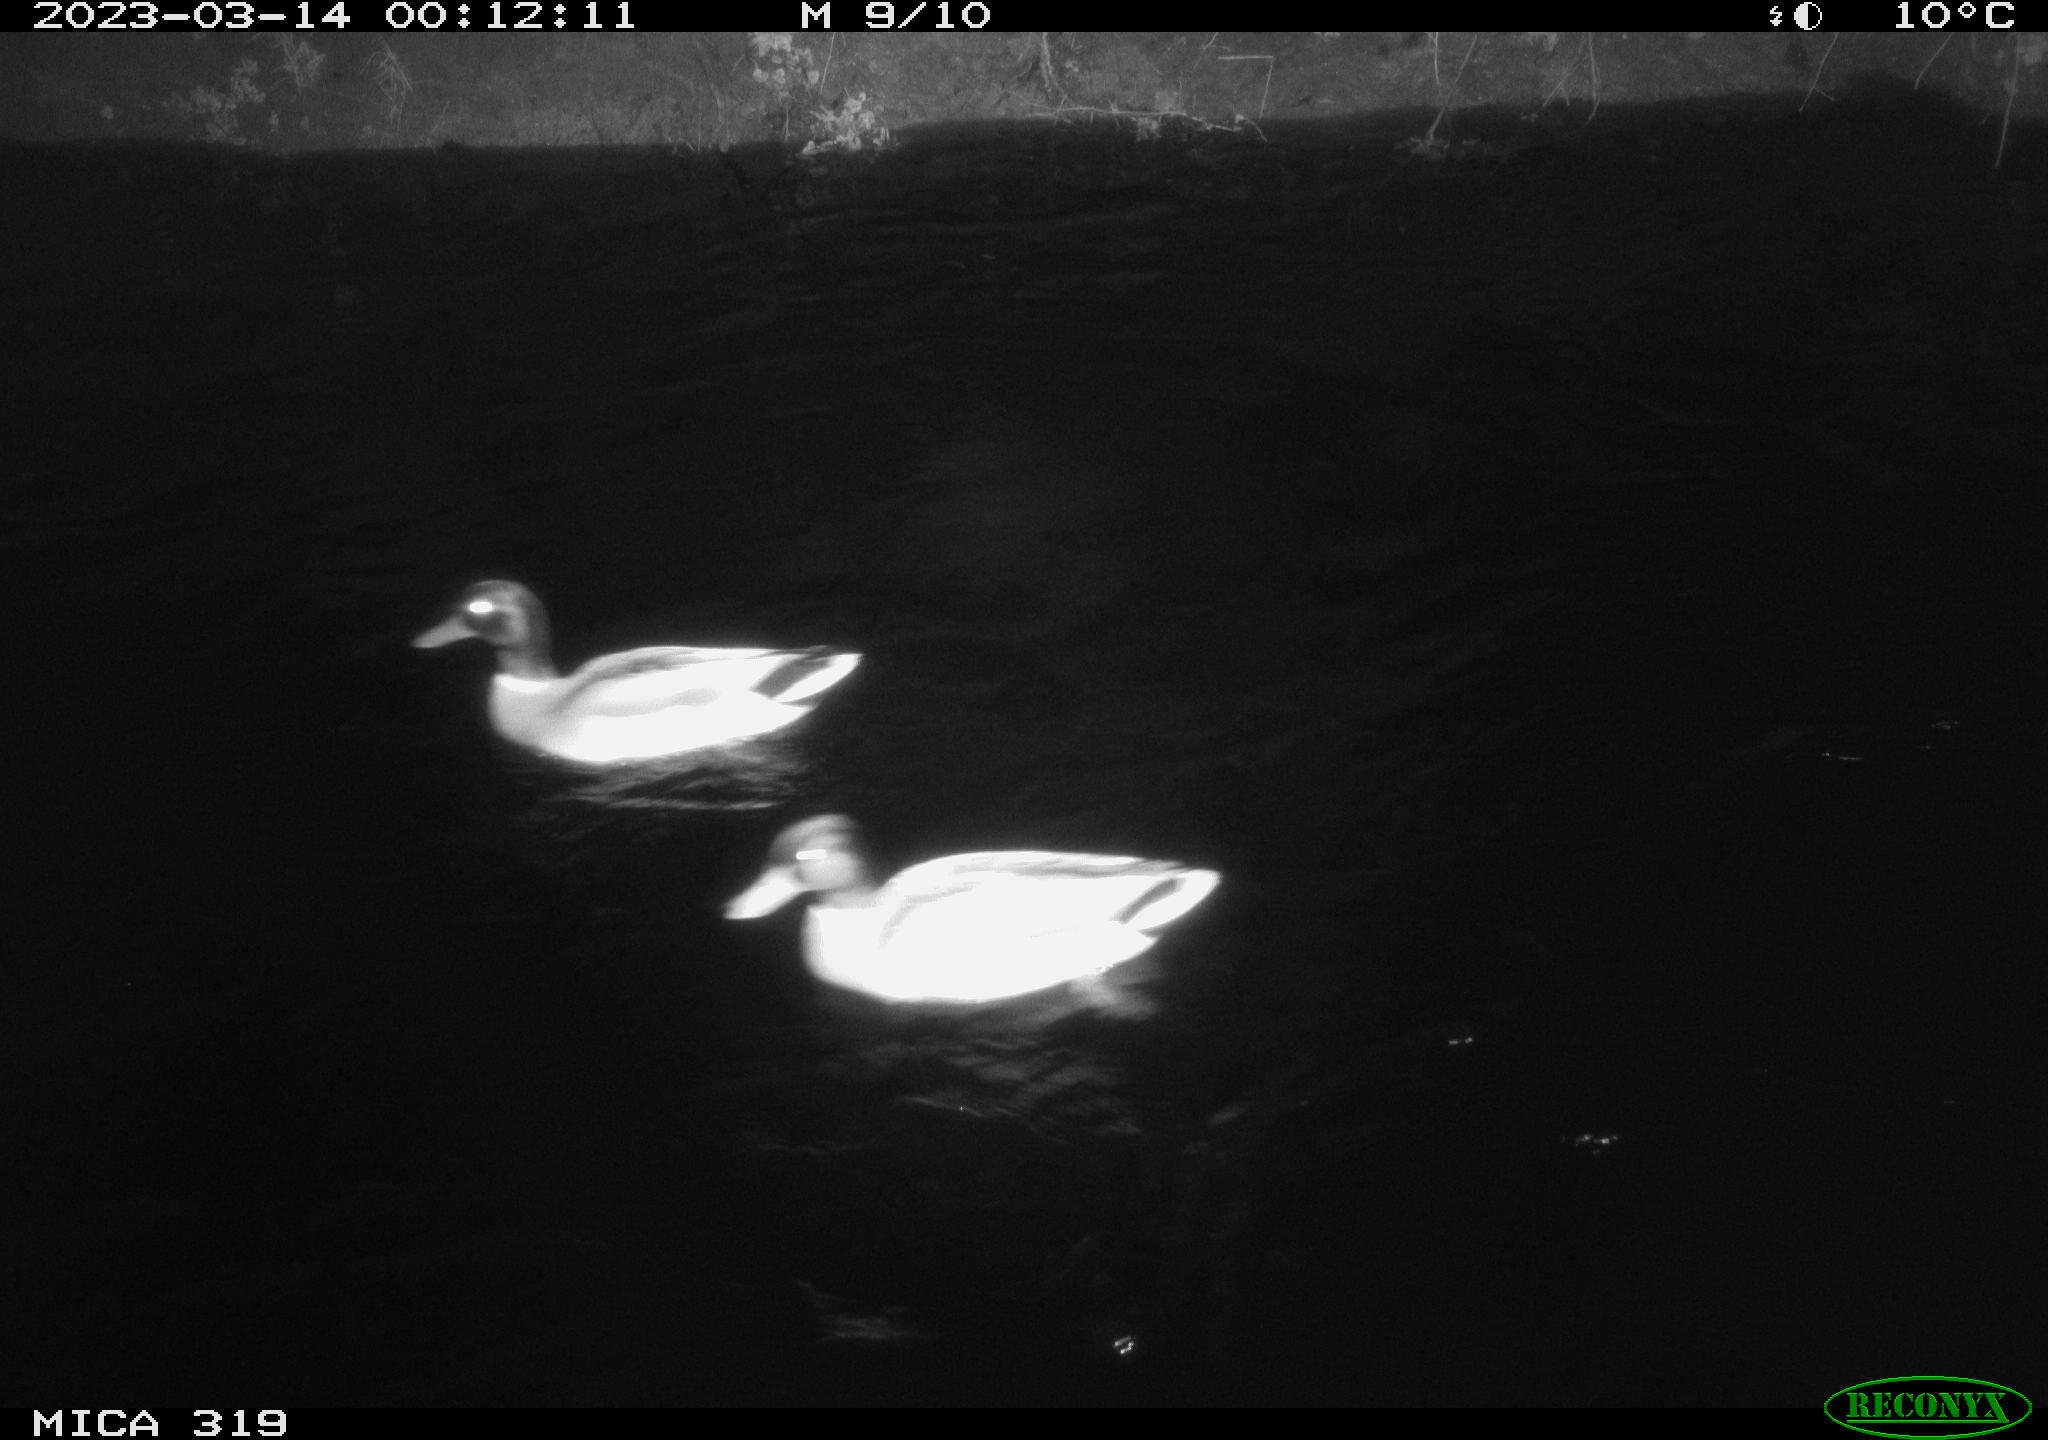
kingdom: Animalia
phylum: Chordata
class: Aves
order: Anseriformes
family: Anatidae
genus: Anas
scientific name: Anas
